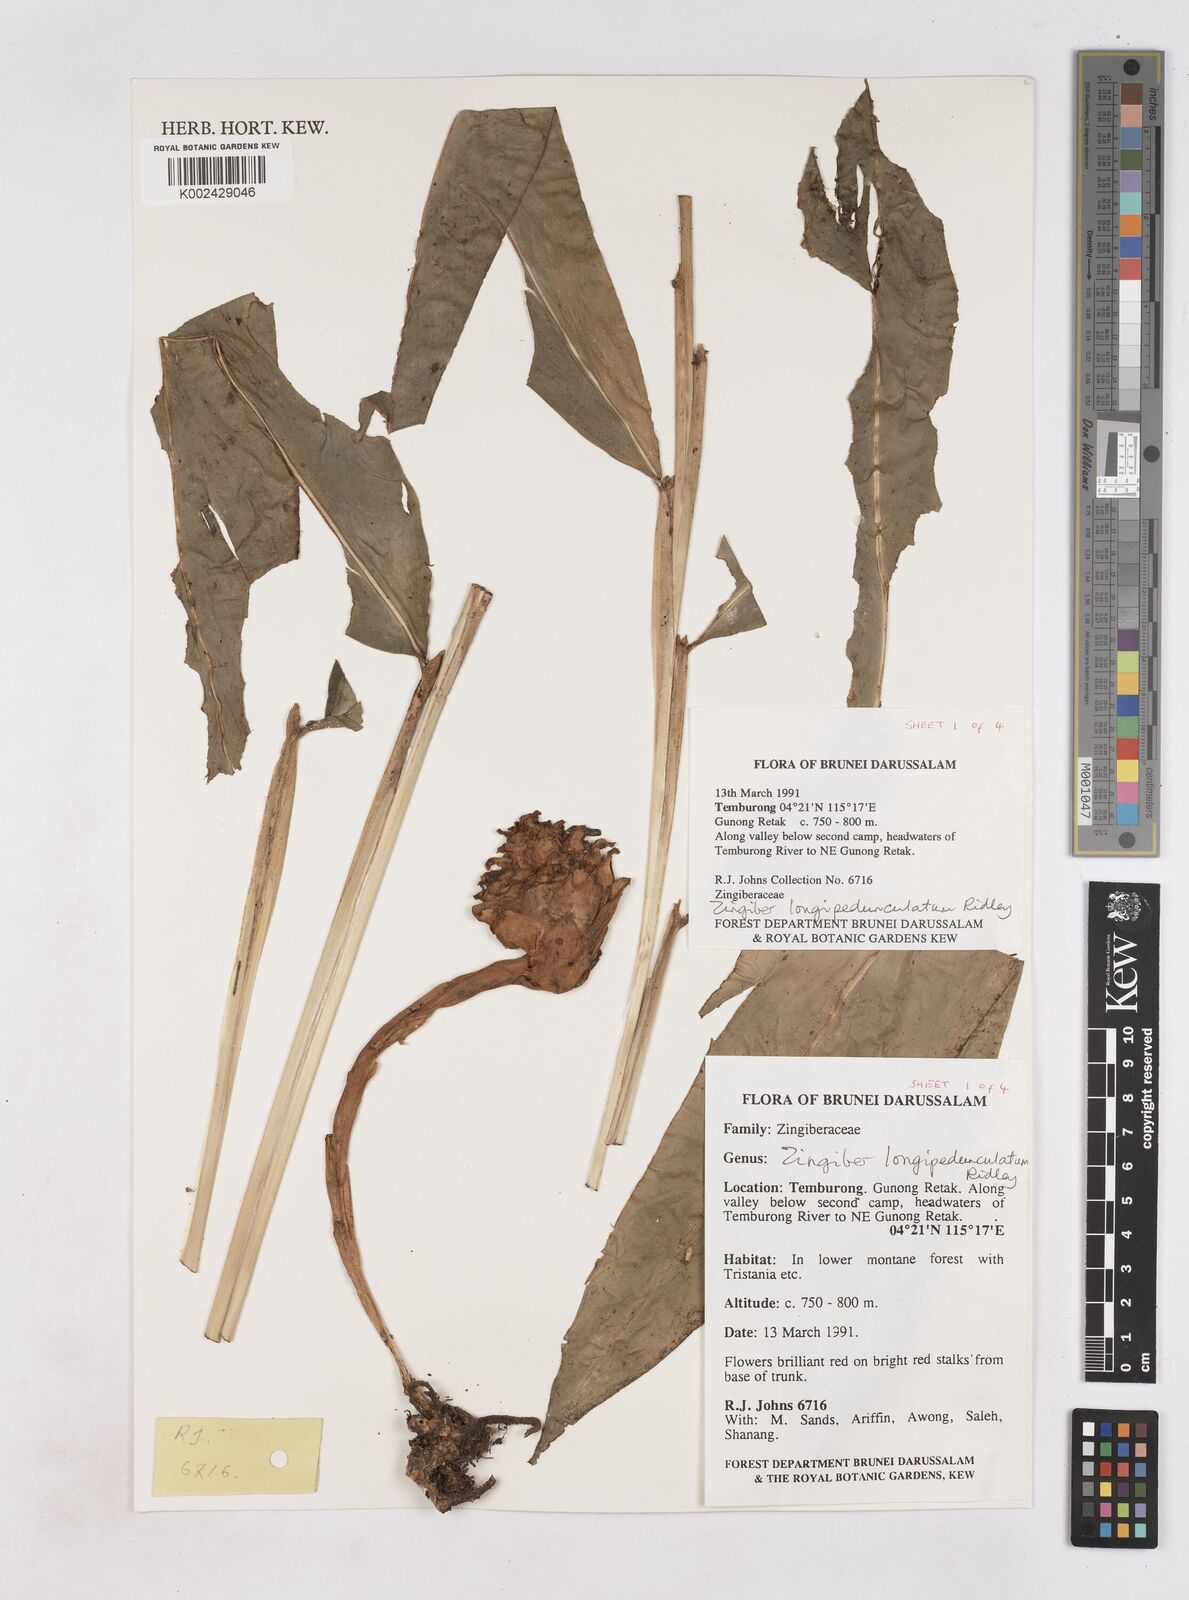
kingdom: Plantae
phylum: Tracheophyta
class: Liliopsida
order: Zingiberales
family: Zingiberaceae
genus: Zingiber
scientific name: Zingiber longipedunculatum
